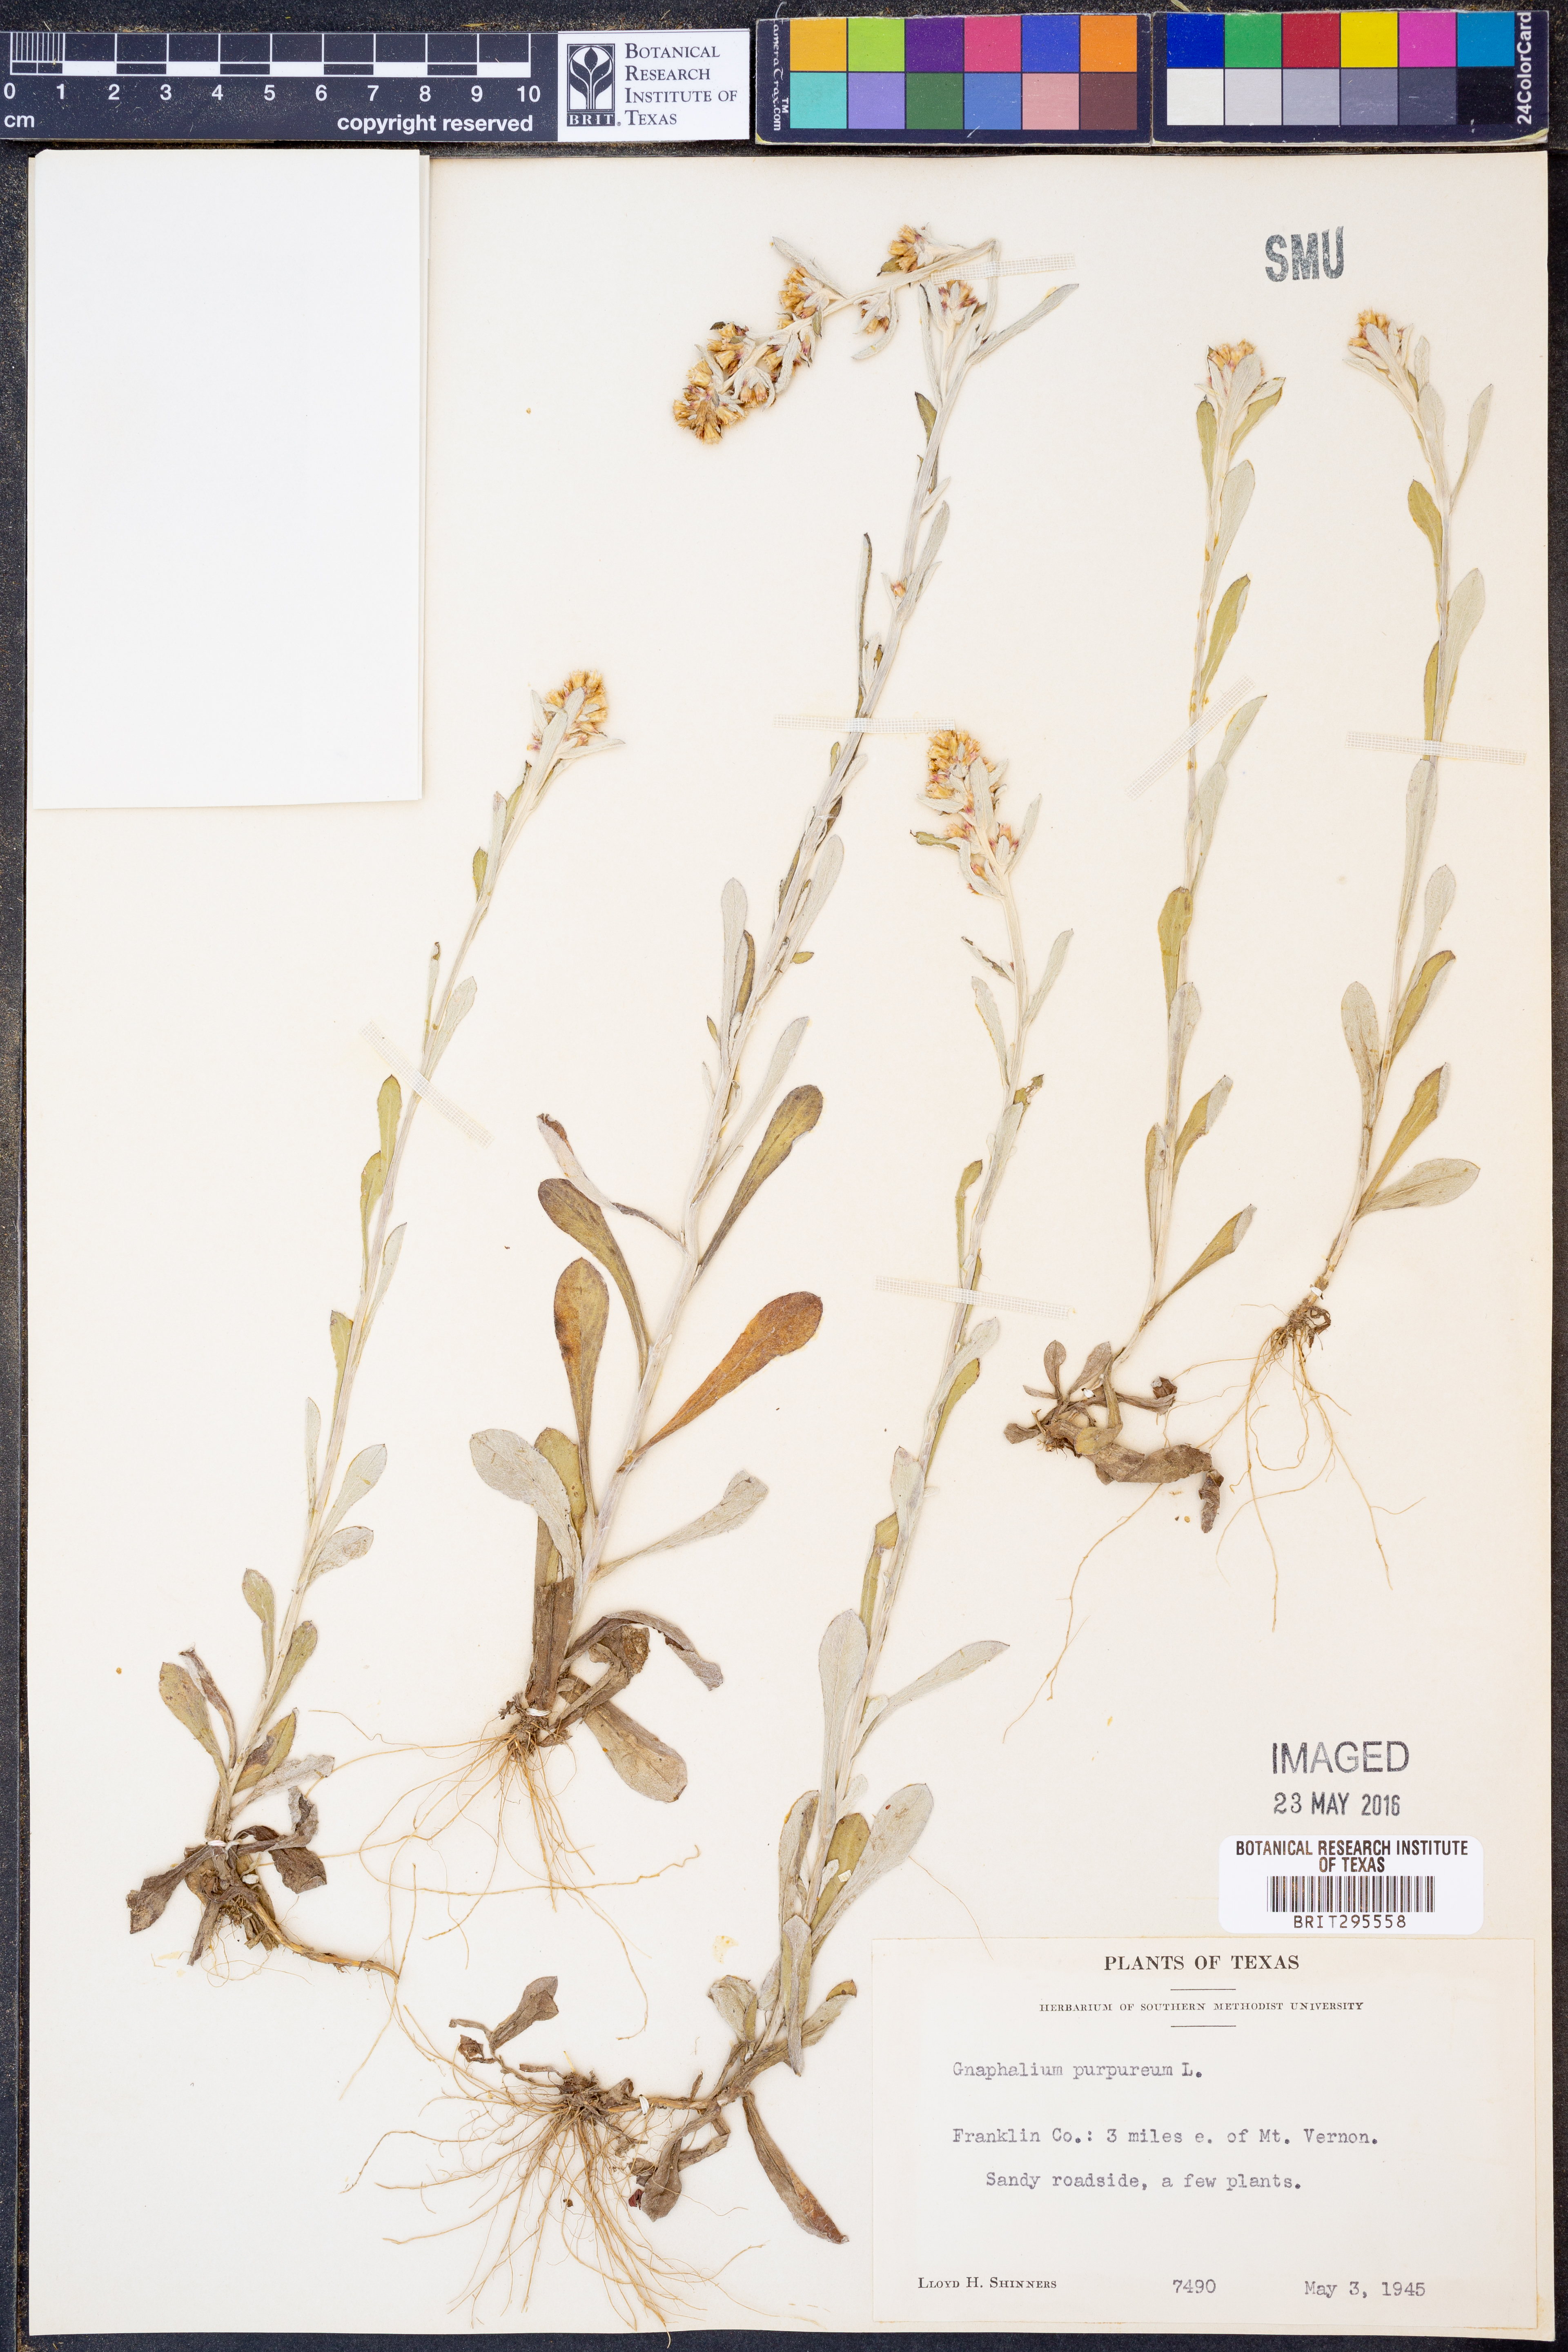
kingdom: Plantae
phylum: Tracheophyta
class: Magnoliopsida
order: Asterales
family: Asteraceae
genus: Gamochaeta
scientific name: Gamochaeta purpurea
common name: Purple cudweed
